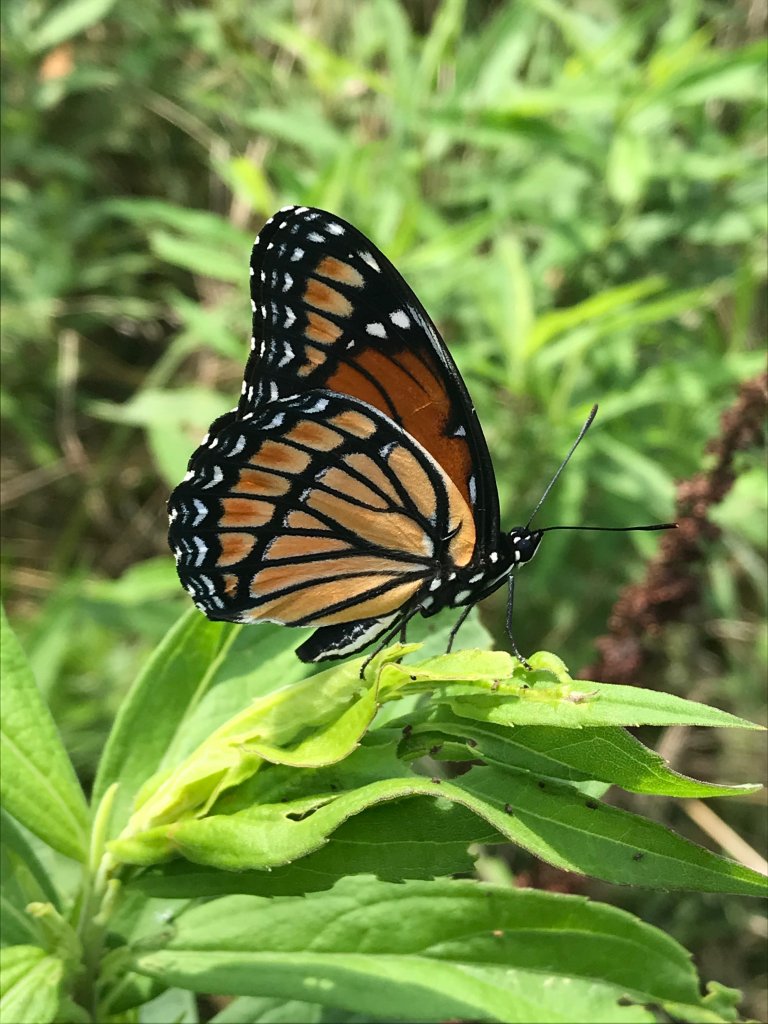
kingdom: Animalia
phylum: Arthropoda
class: Insecta
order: Lepidoptera
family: Nymphalidae
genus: Limenitis
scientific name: Limenitis archippus
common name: Viceroy
